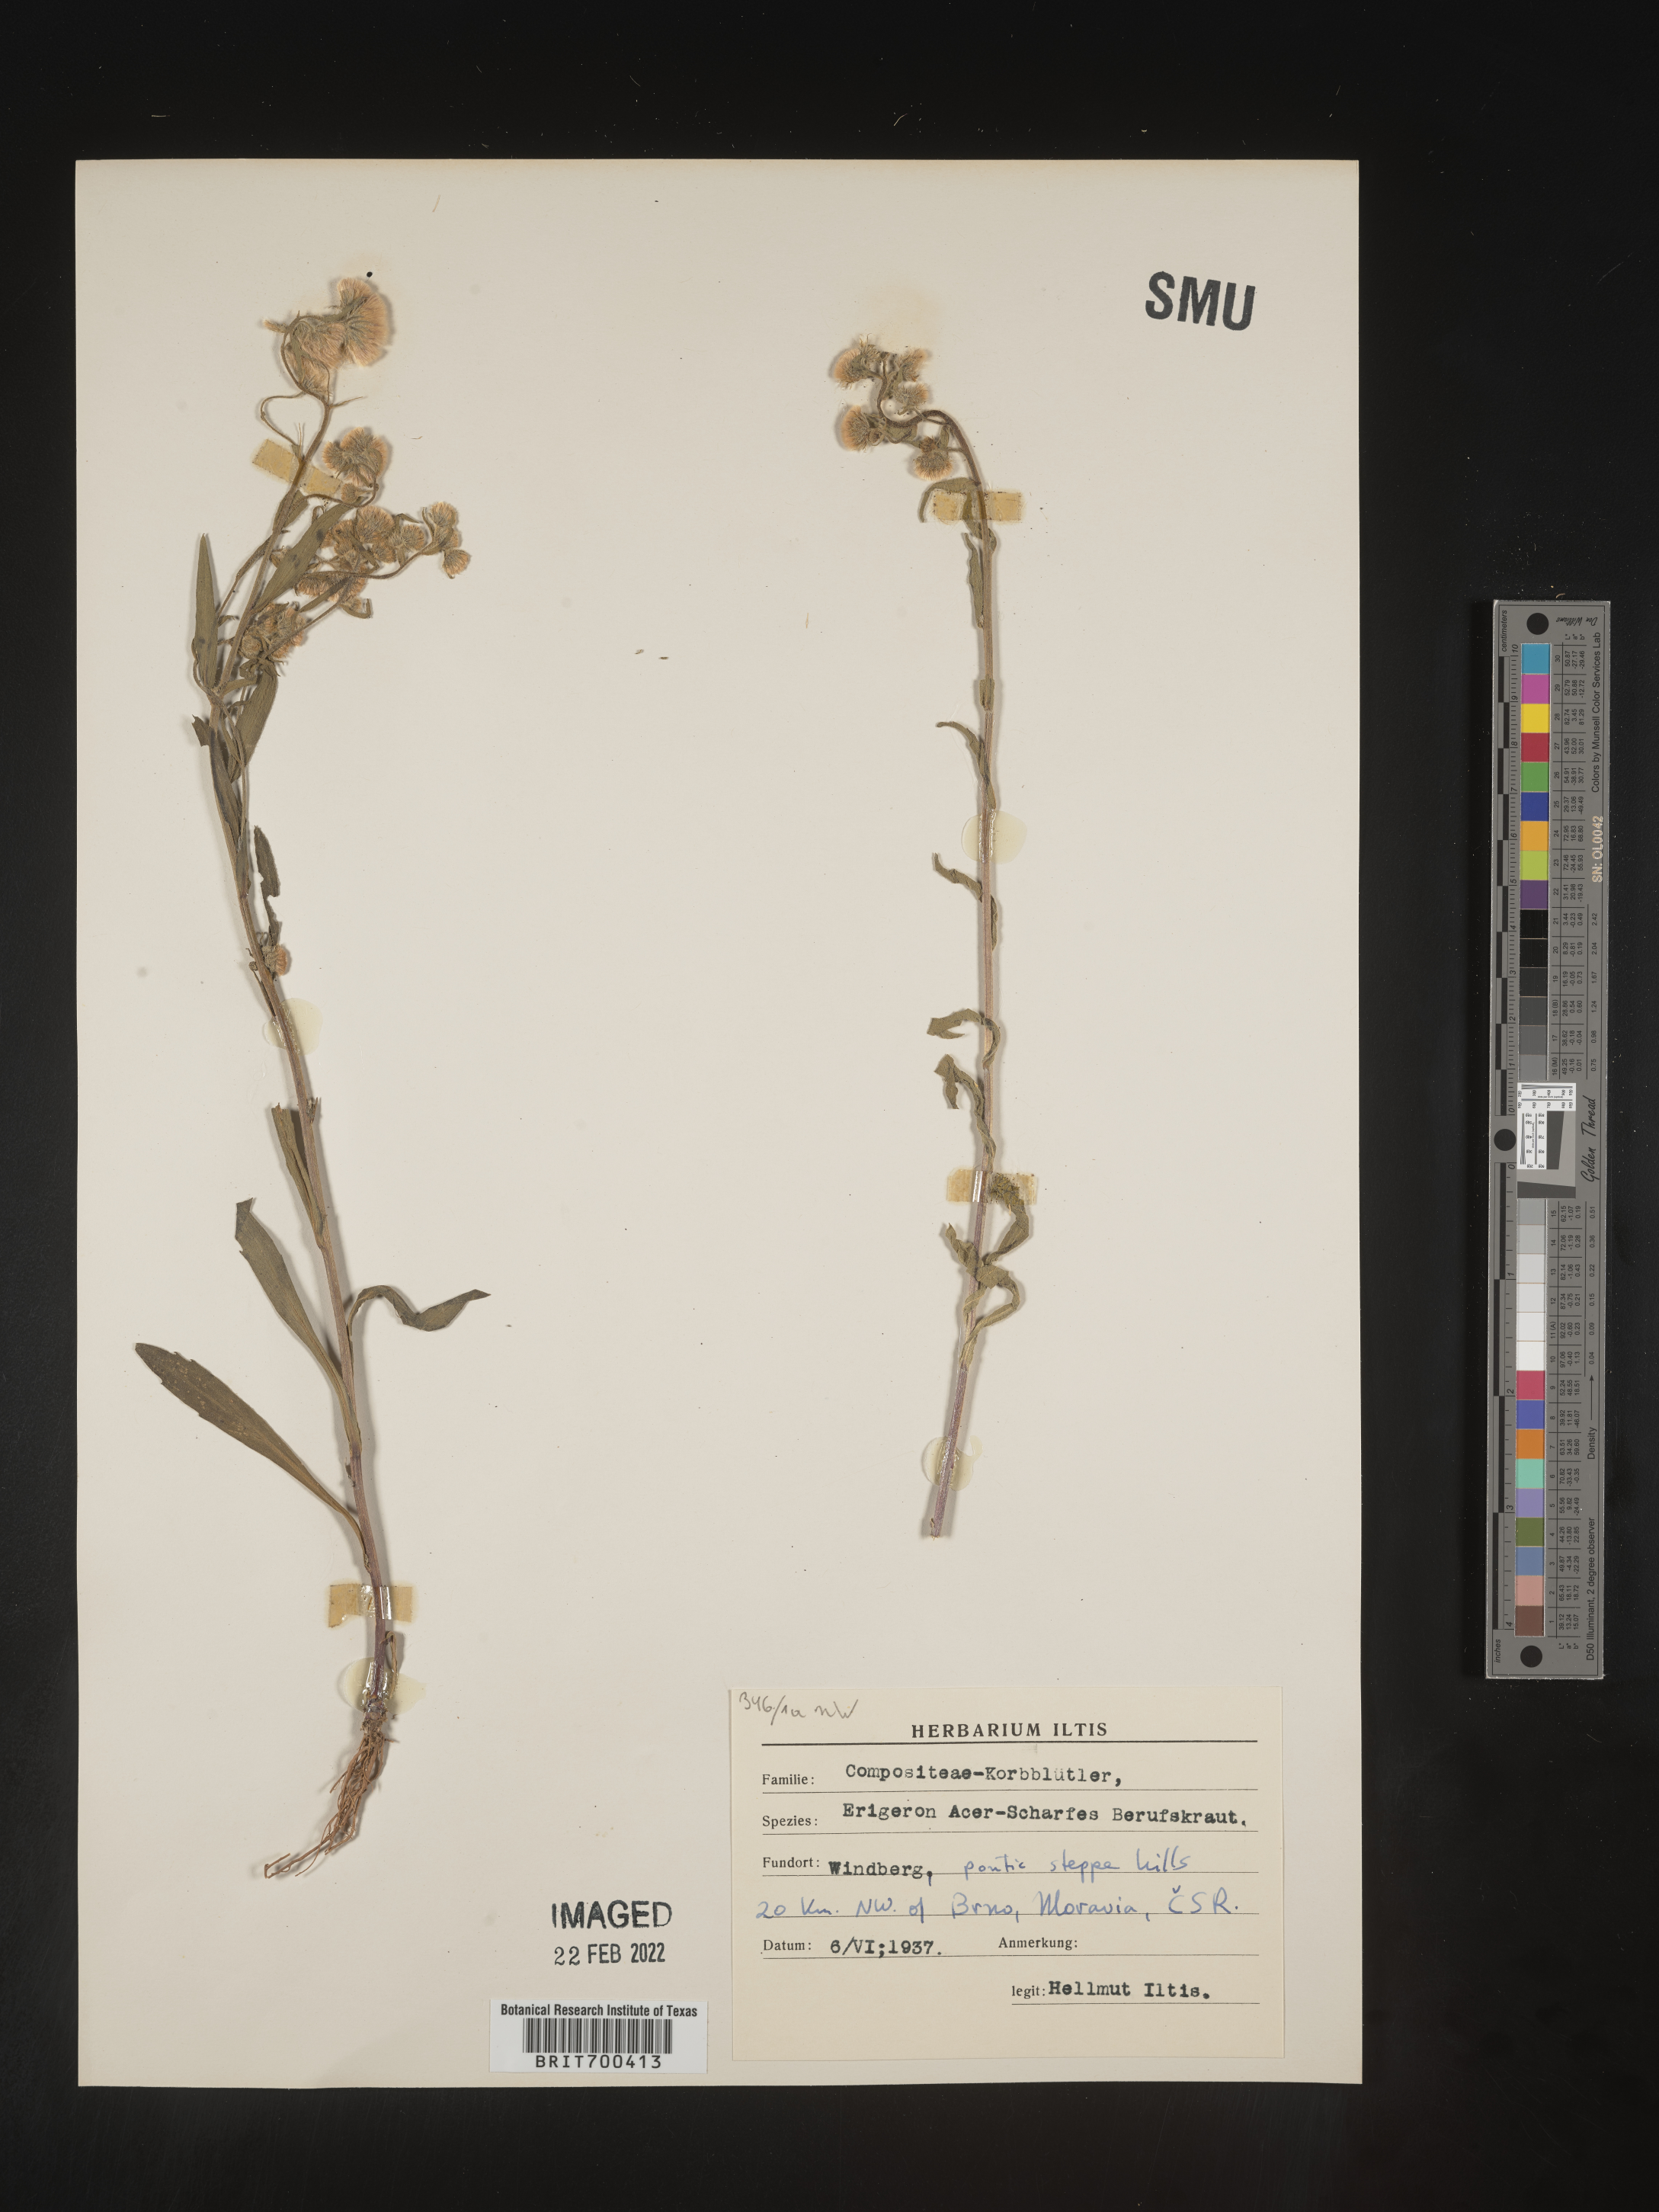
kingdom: Plantae
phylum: Tracheophyta
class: Magnoliopsida
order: Asterales
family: Asteraceae
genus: Erigeron
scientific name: Erigeron
